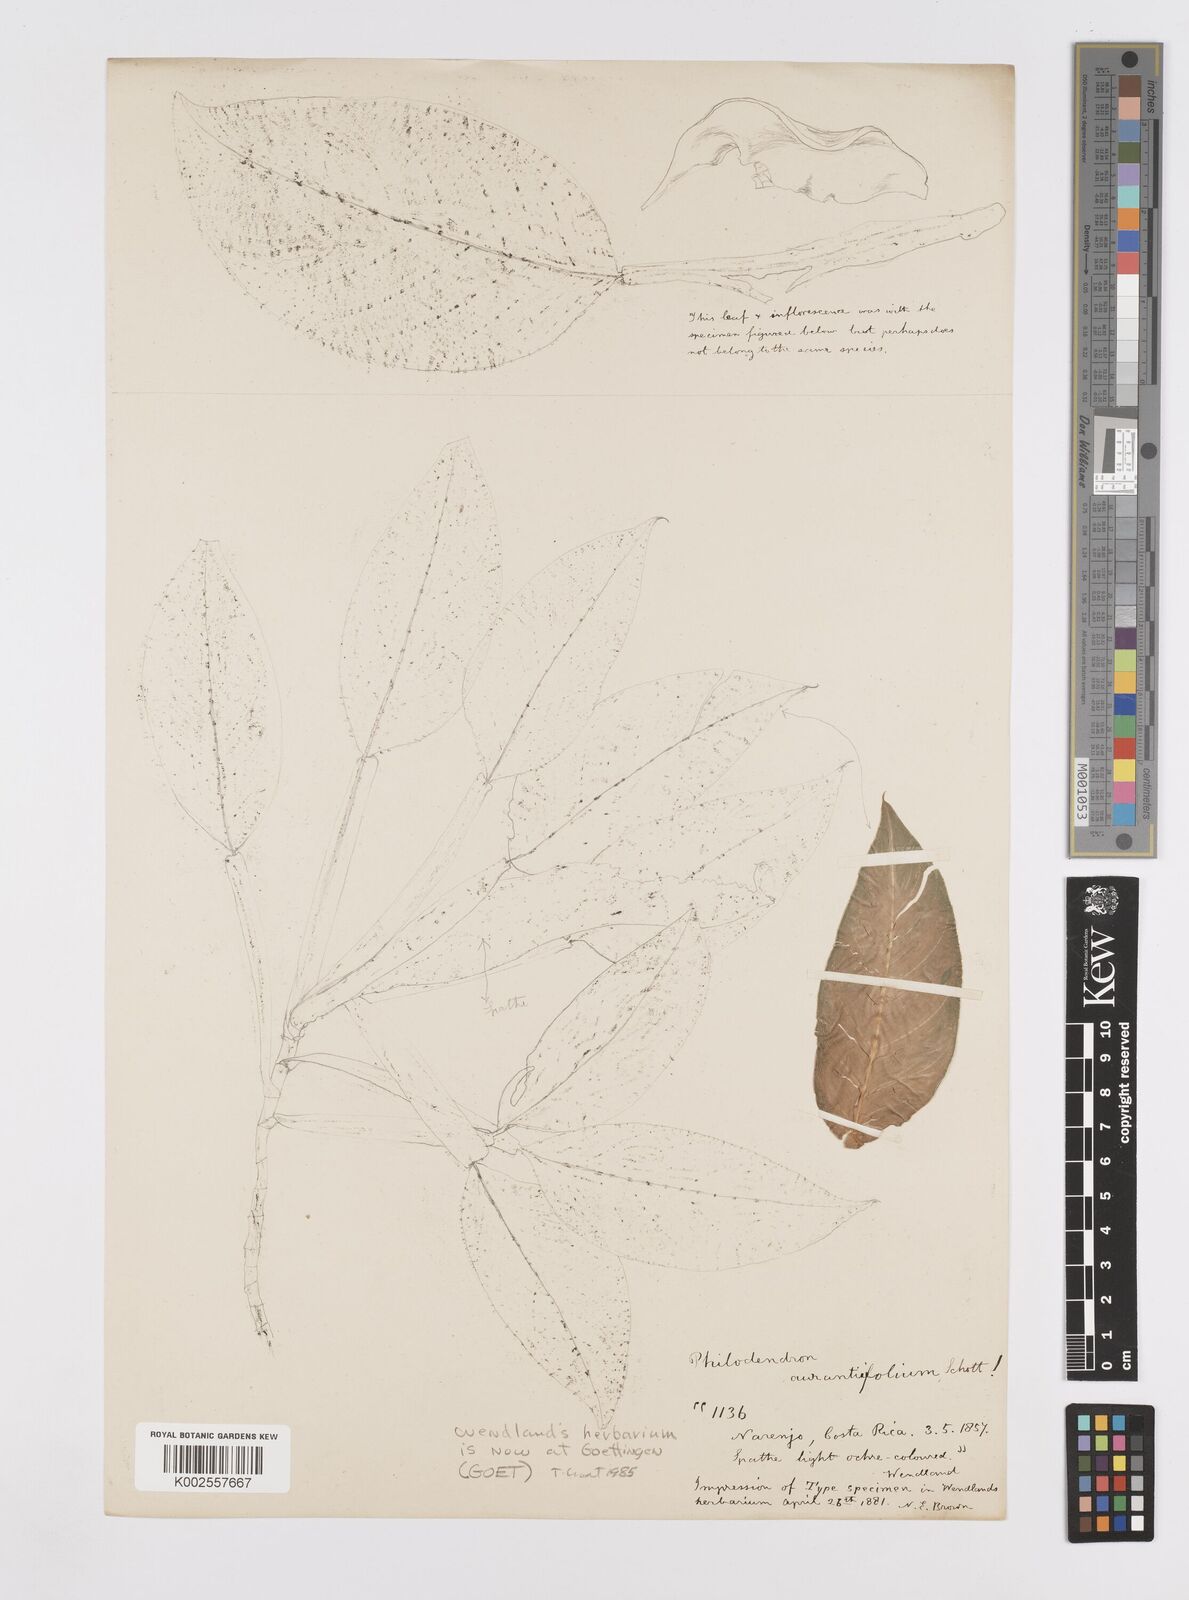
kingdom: Plantae
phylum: Tracheophyta
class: Liliopsida
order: Alismatales
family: Araceae
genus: Philodendron
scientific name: Philodendron guttiferum
